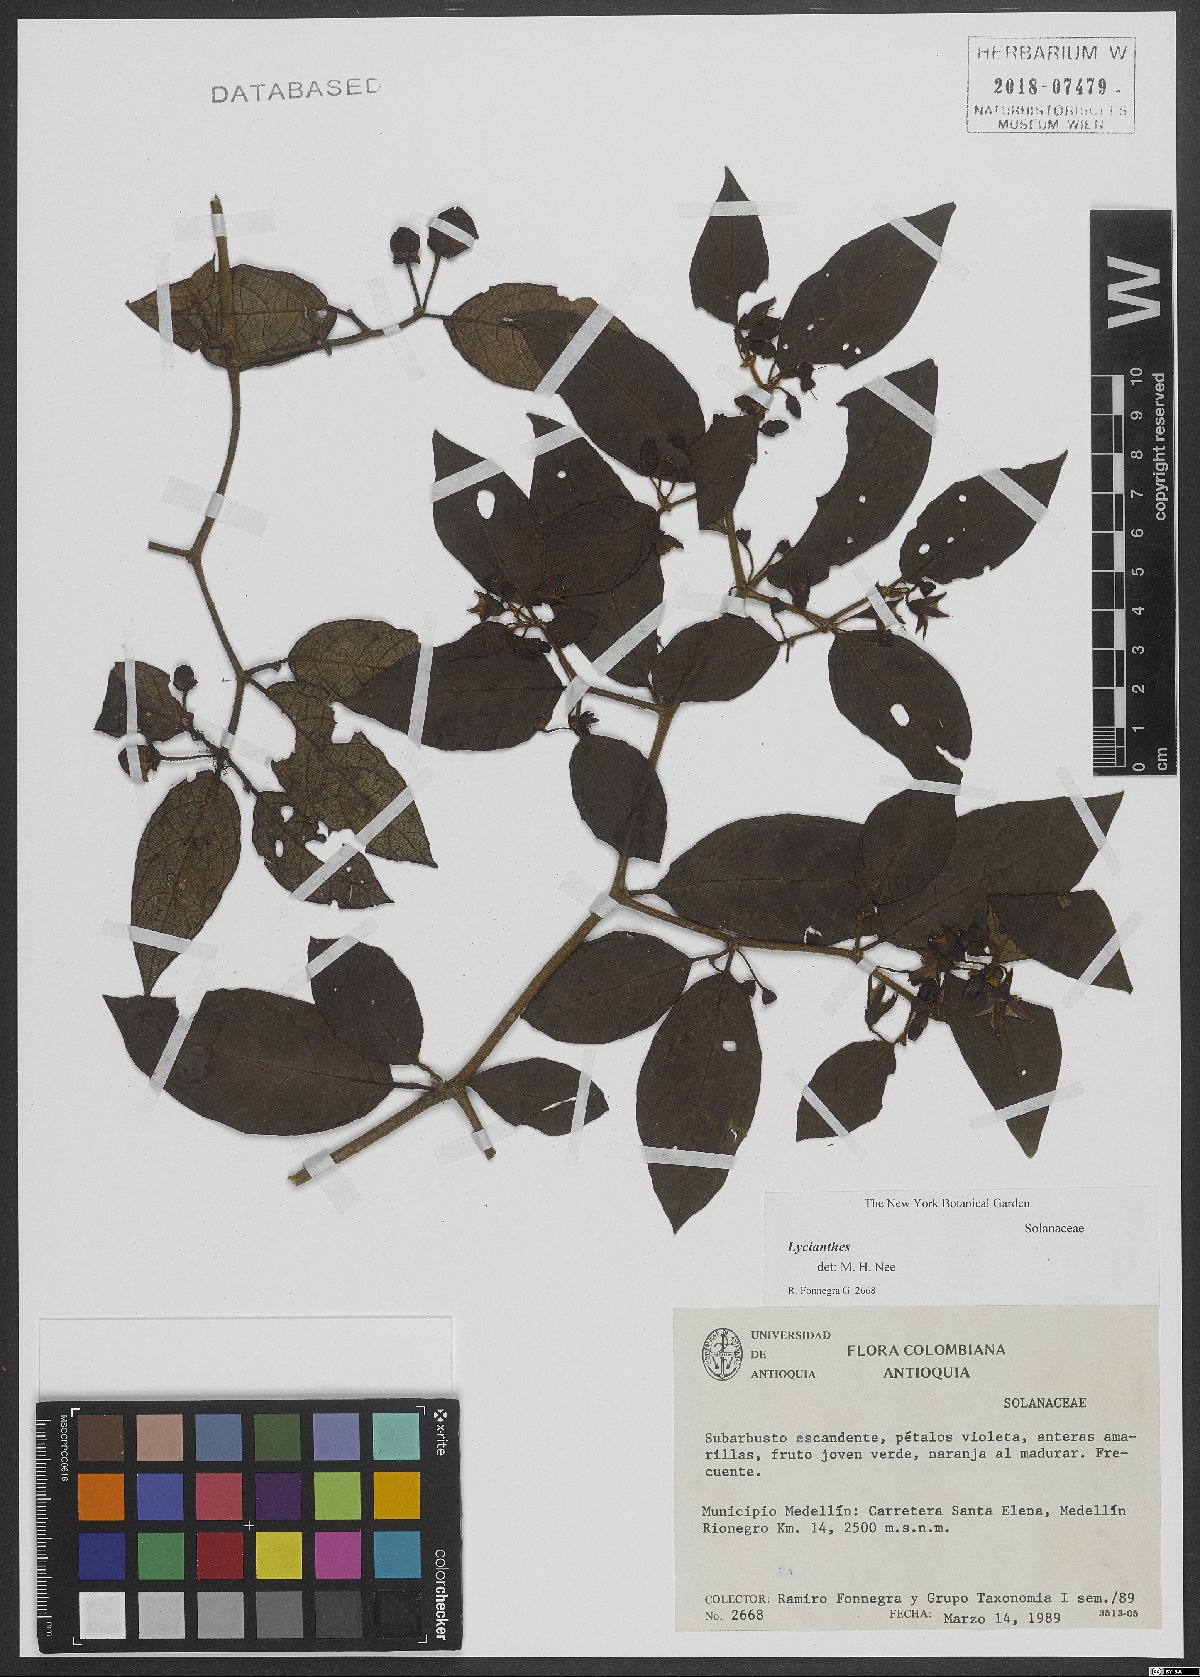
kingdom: Plantae
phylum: Tracheophyta
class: Magnoliopsida
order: Solanales
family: Solanaceae
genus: Lycianthes
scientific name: Lycianthes
